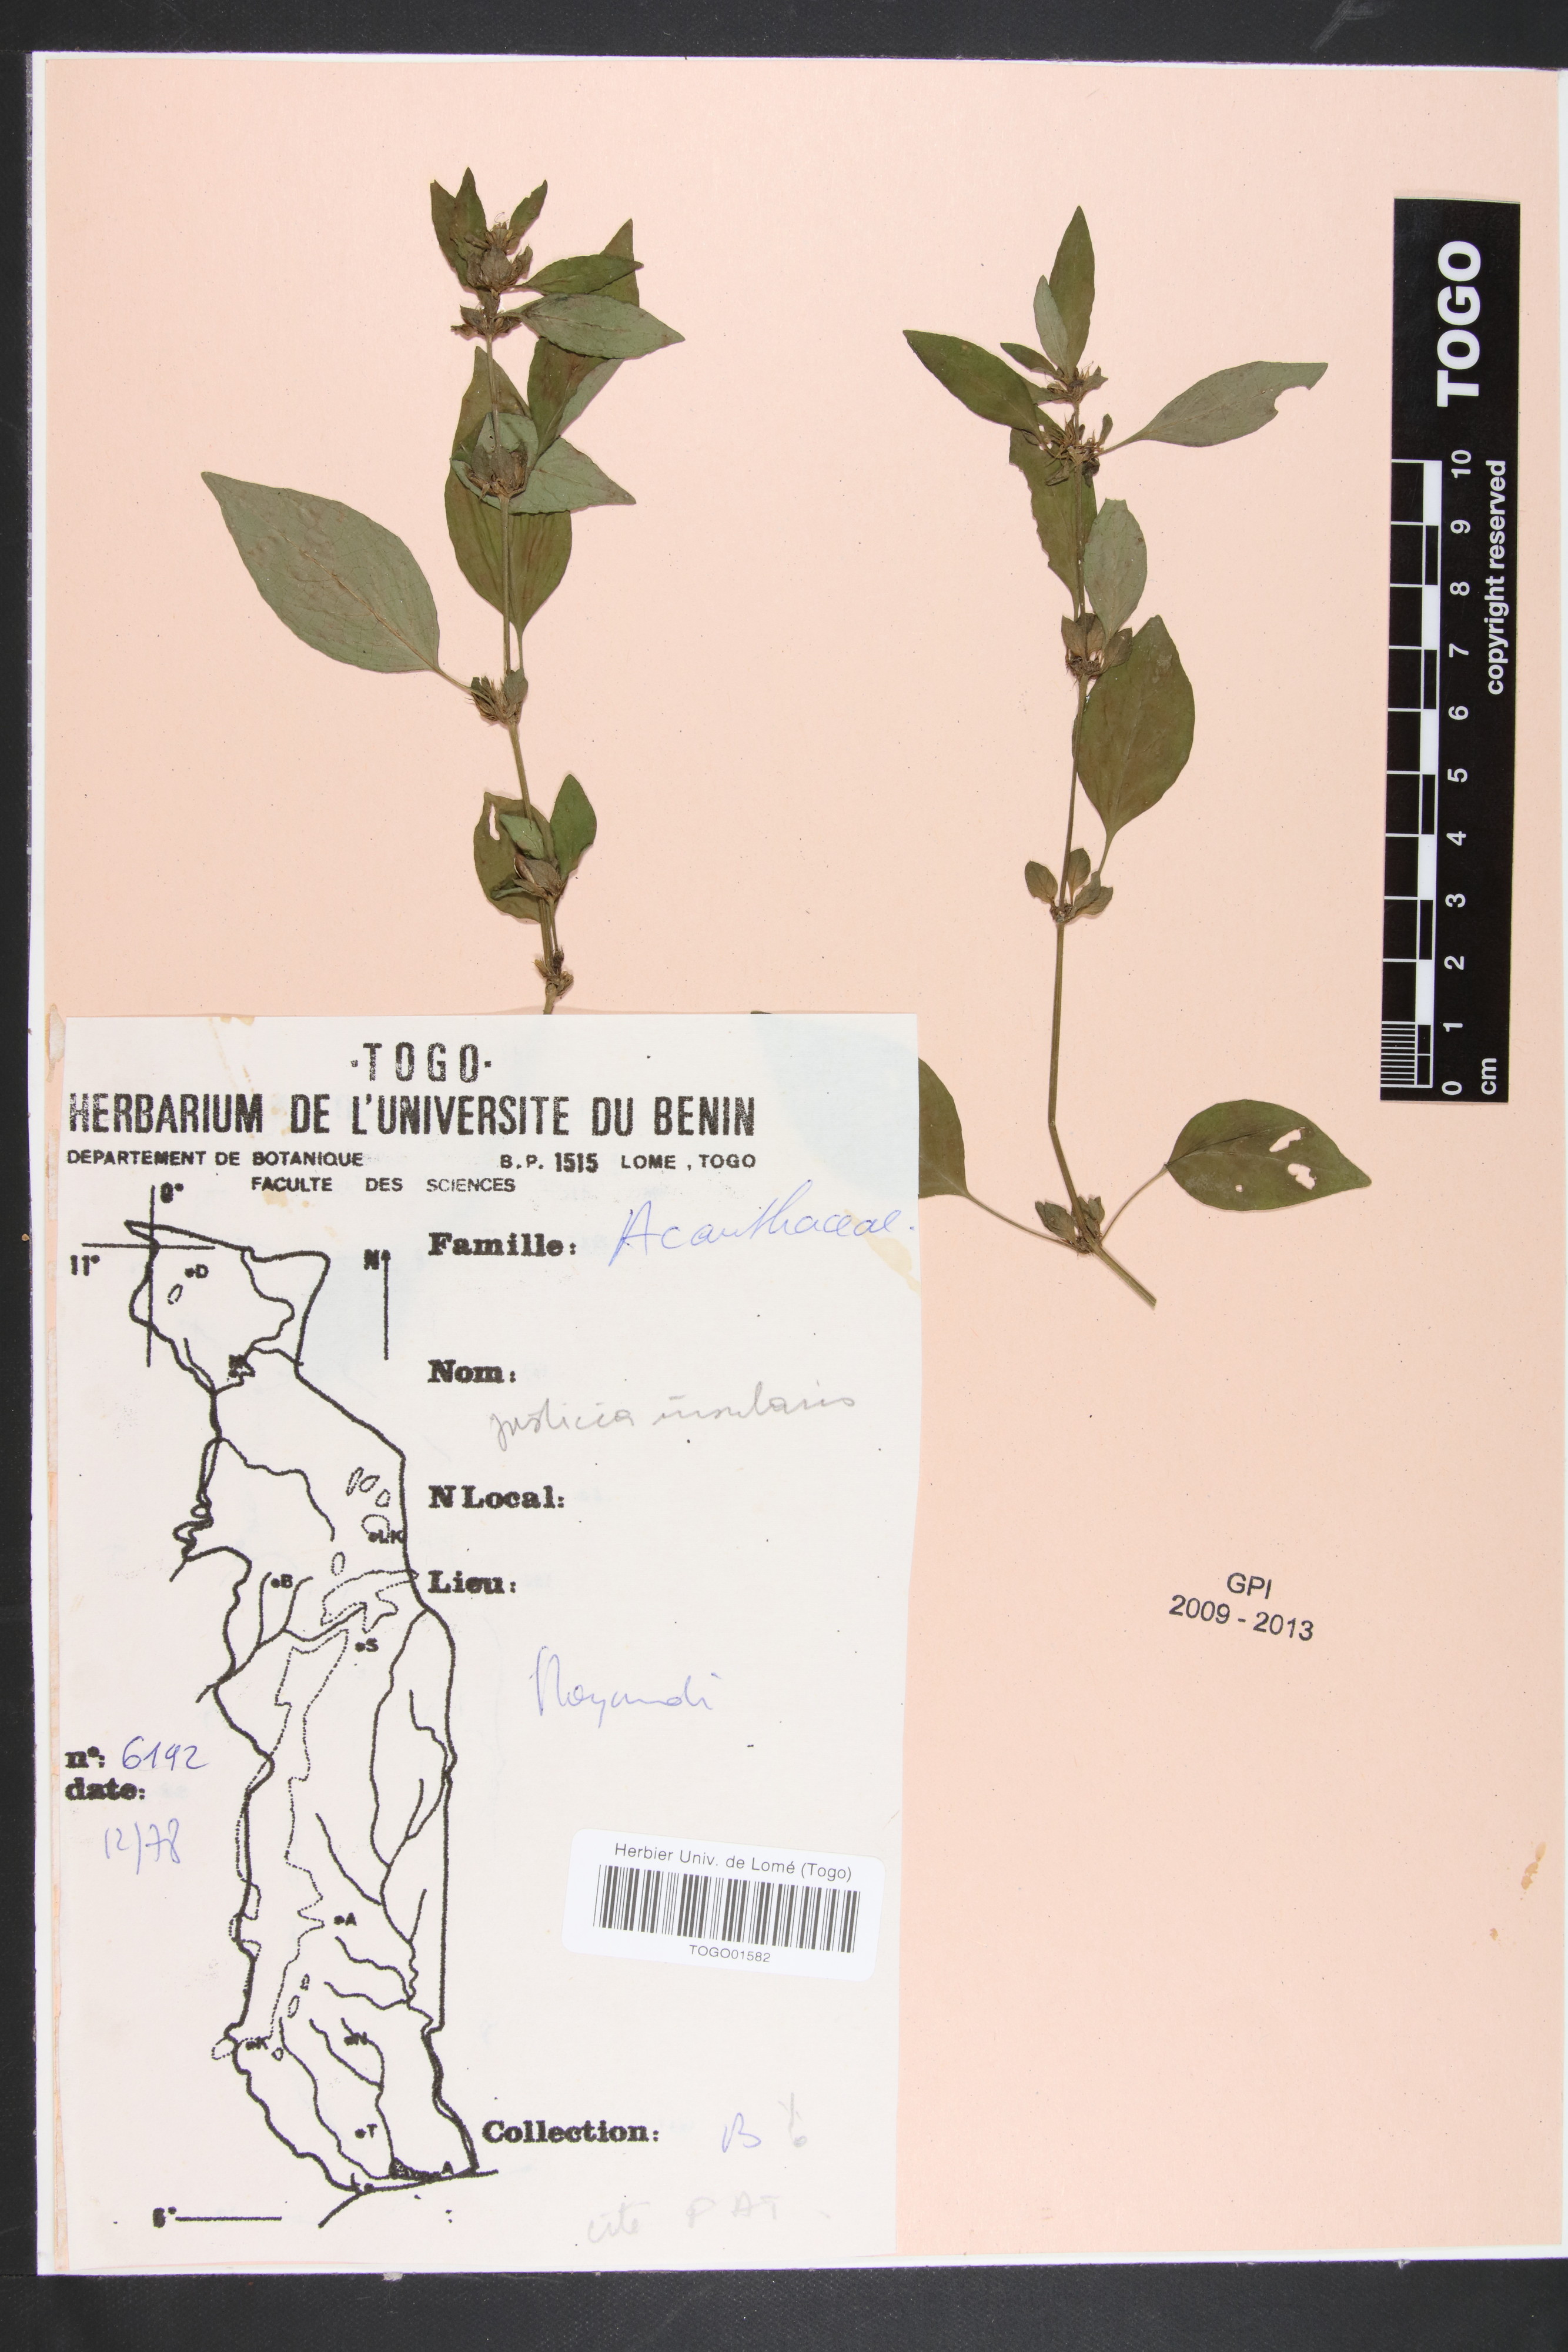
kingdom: Plantae
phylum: Tracheophyta
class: Magnoliopsida
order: Lamiales
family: Acanthaceae
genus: Justicia
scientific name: Justicia insularis
